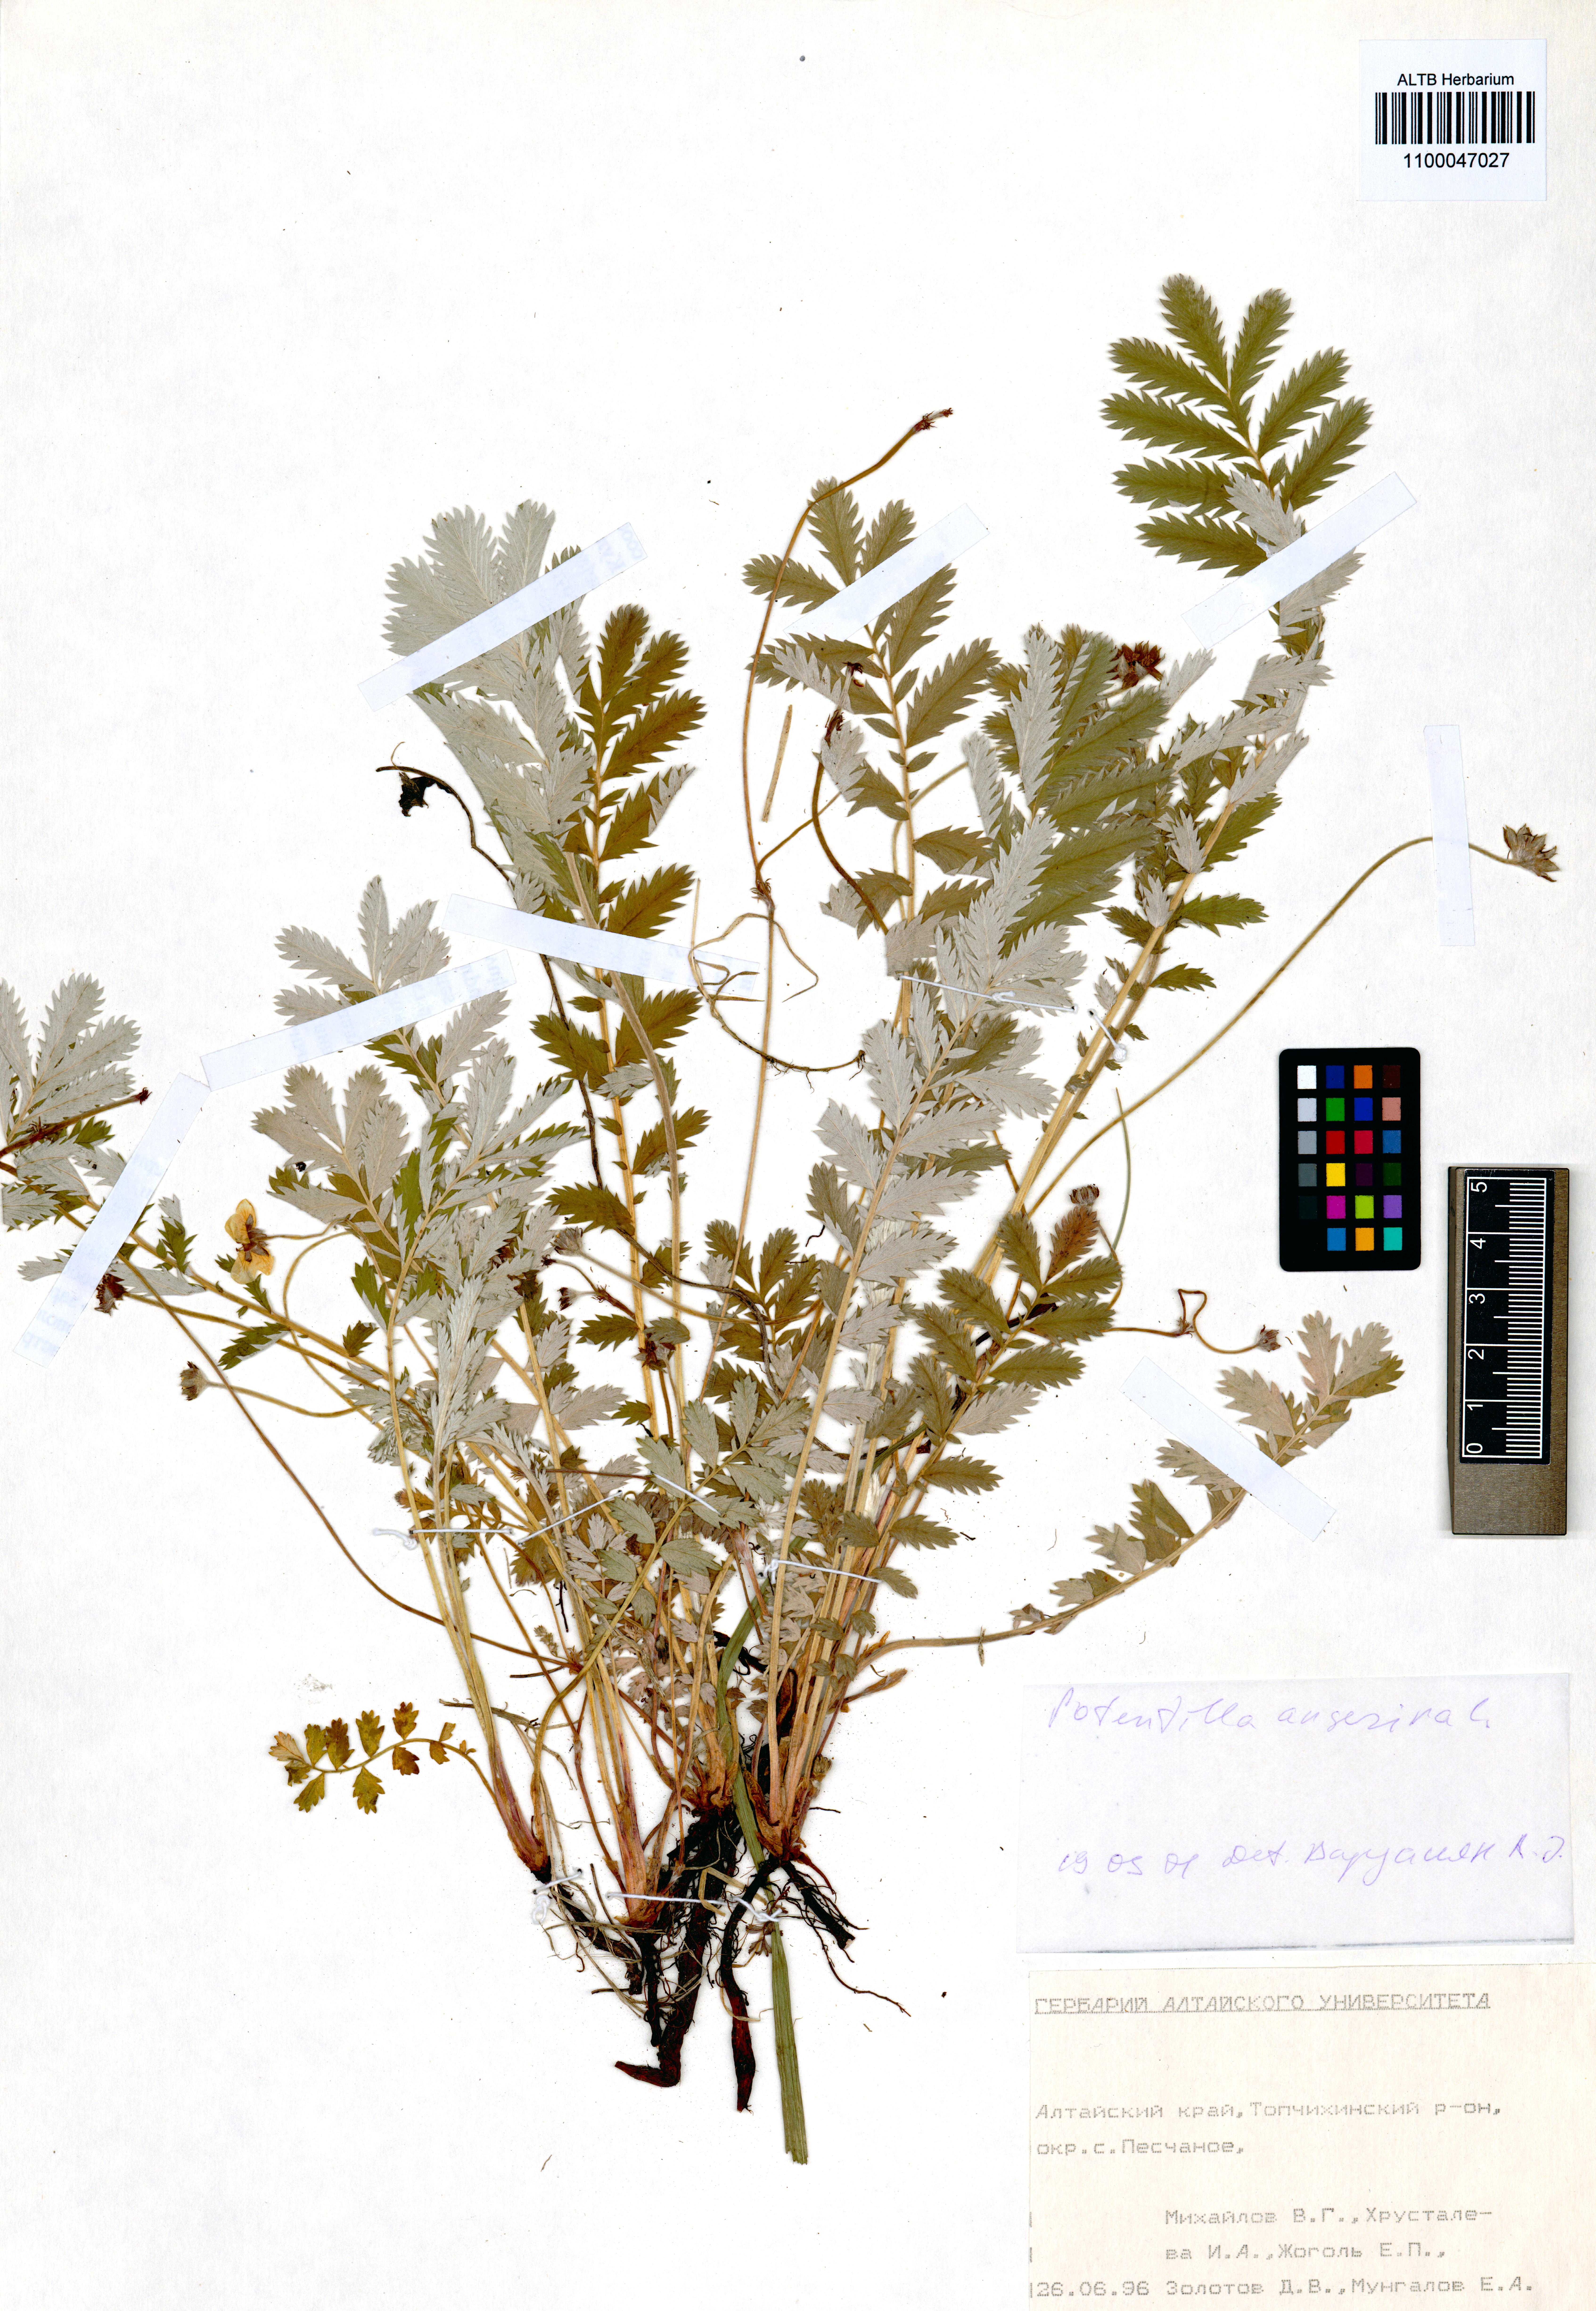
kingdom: Plantae
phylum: Tracheophyta
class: Magnoliopsida
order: Rosales
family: Rosaceae
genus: Argentina
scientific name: Argentina anserina
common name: Common silverweed
